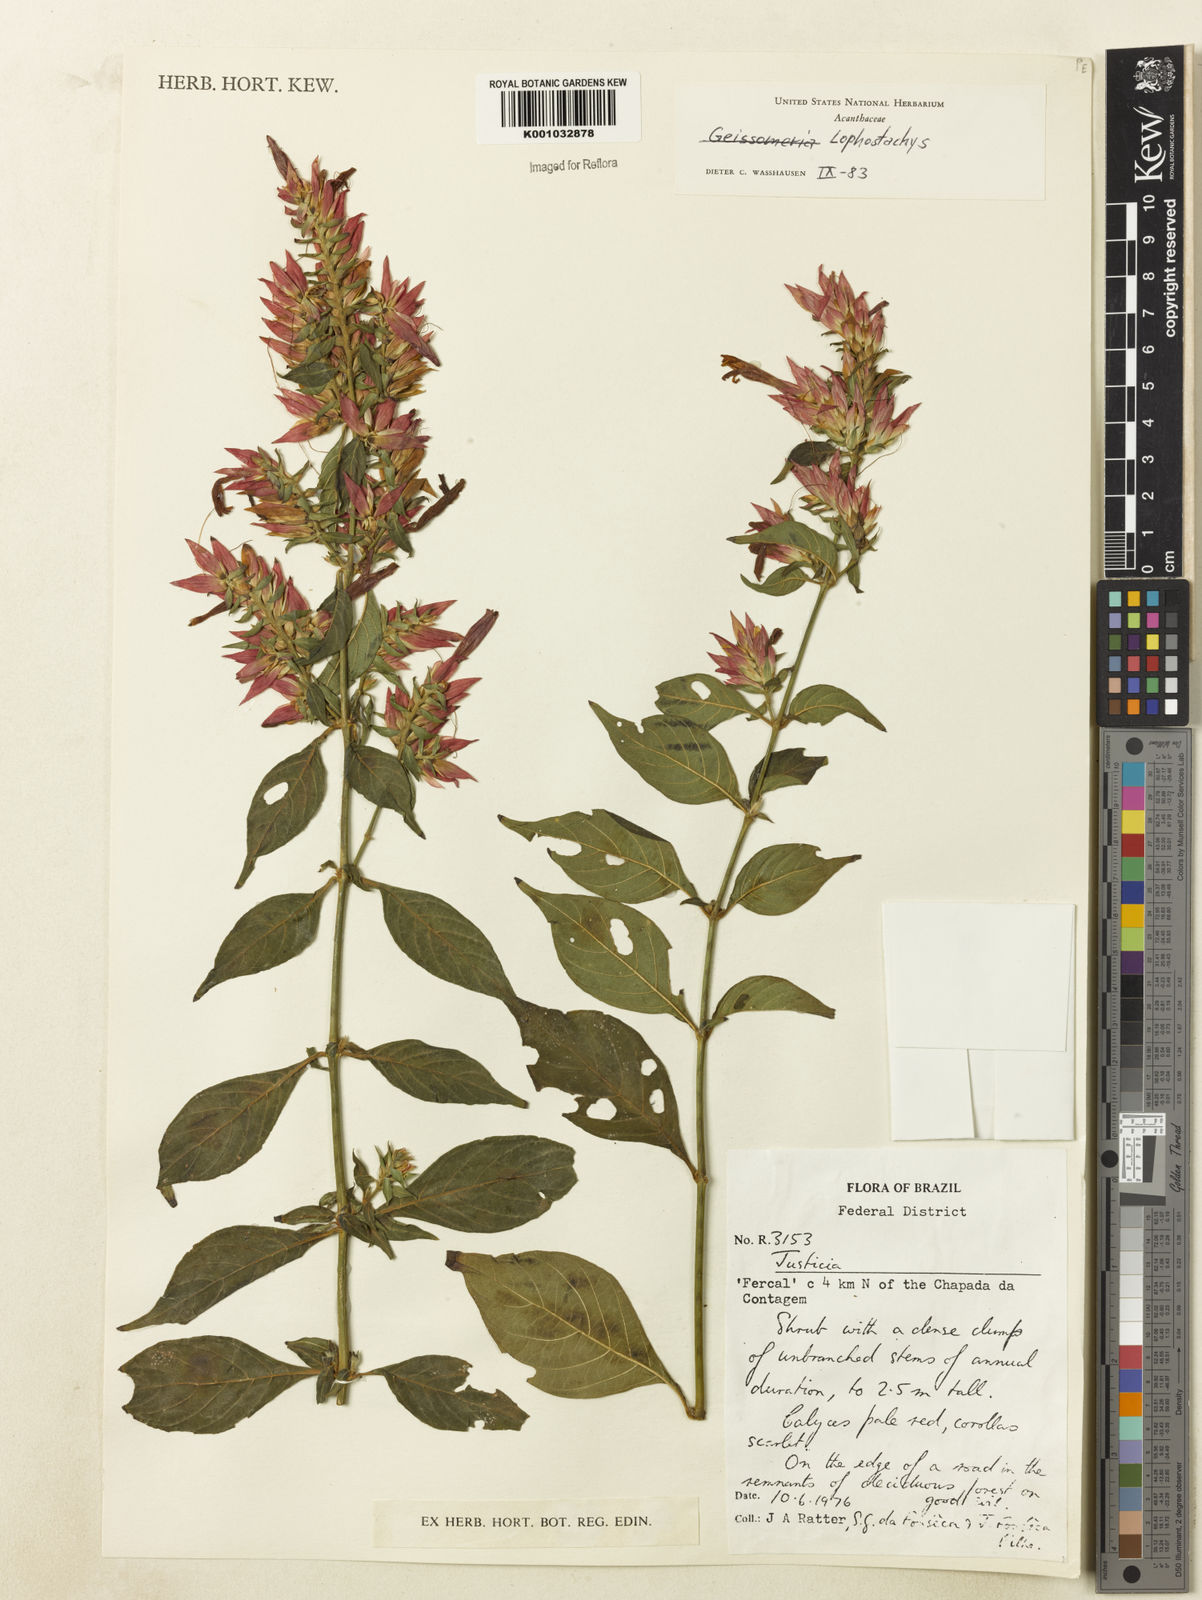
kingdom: Plantae
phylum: Tracheophyta
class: Magnoliopsida
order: Lamiales
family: Acanthaceae
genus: Lepidagathis
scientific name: Lepidagathis floribunda
